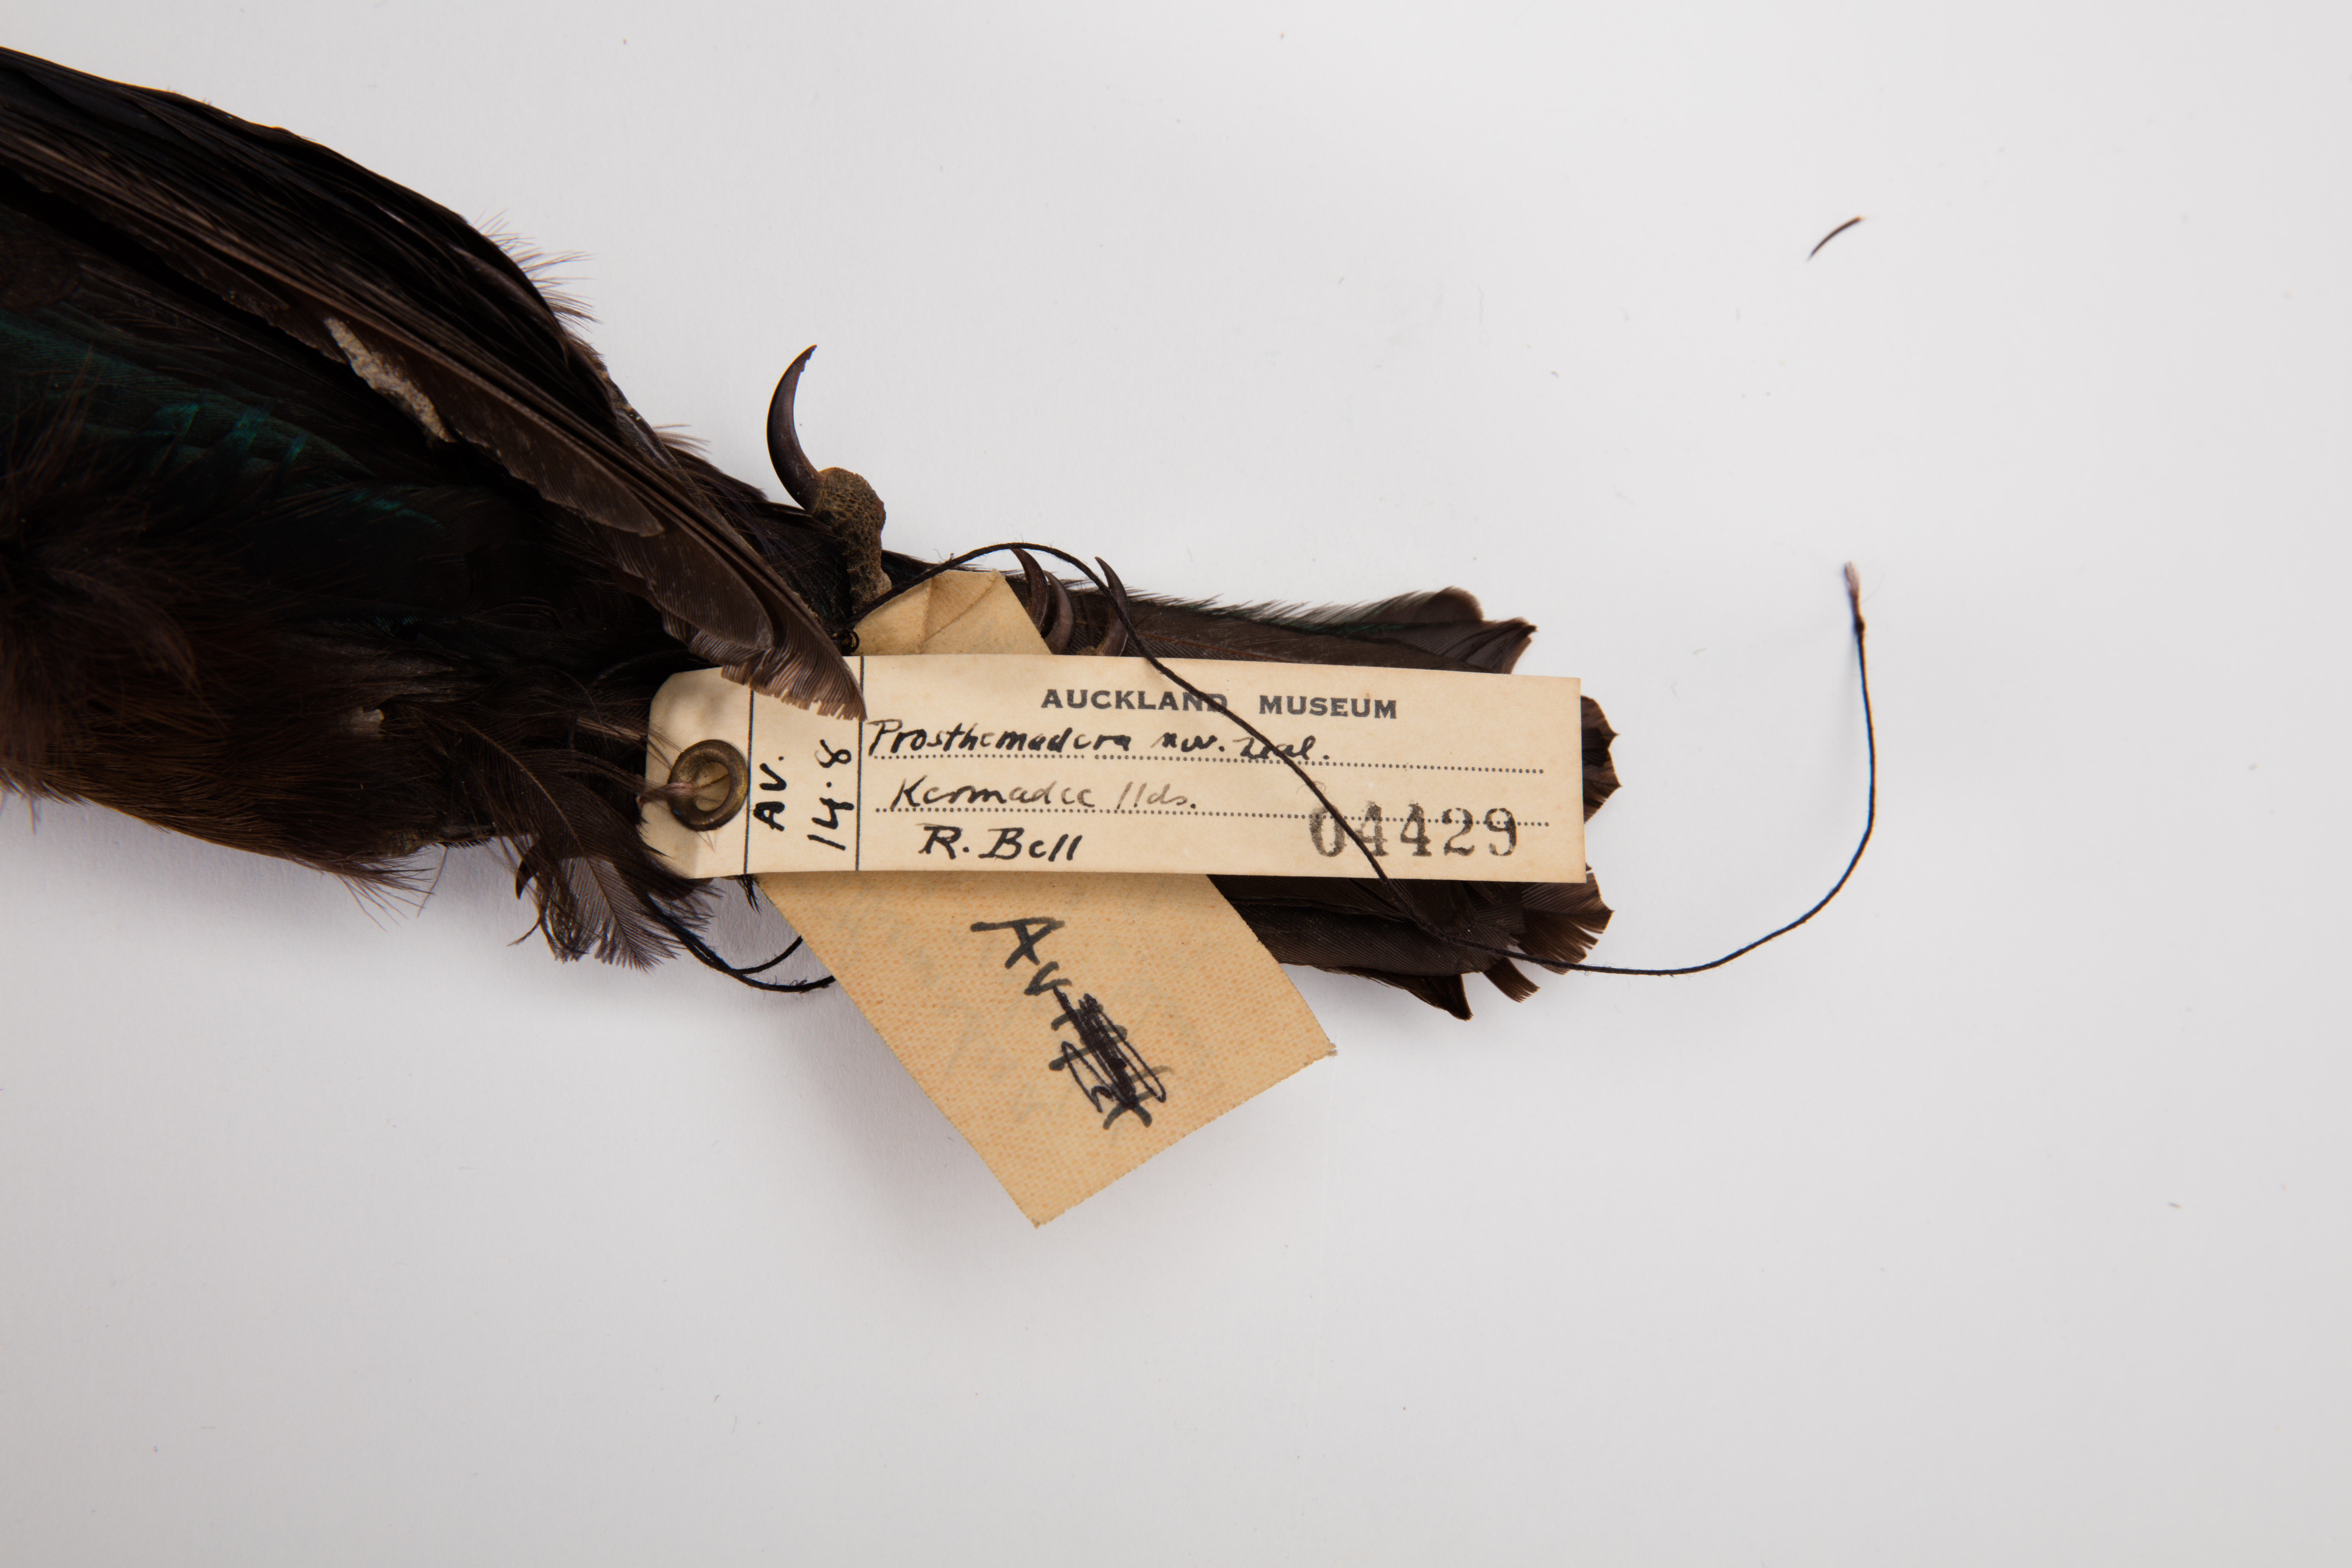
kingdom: Animalia
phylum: Chordata
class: Aves
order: Passeriformes
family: Meliphagidae
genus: Prosthemadera
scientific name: Prosthemadera novaeseelandiae
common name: Tui
